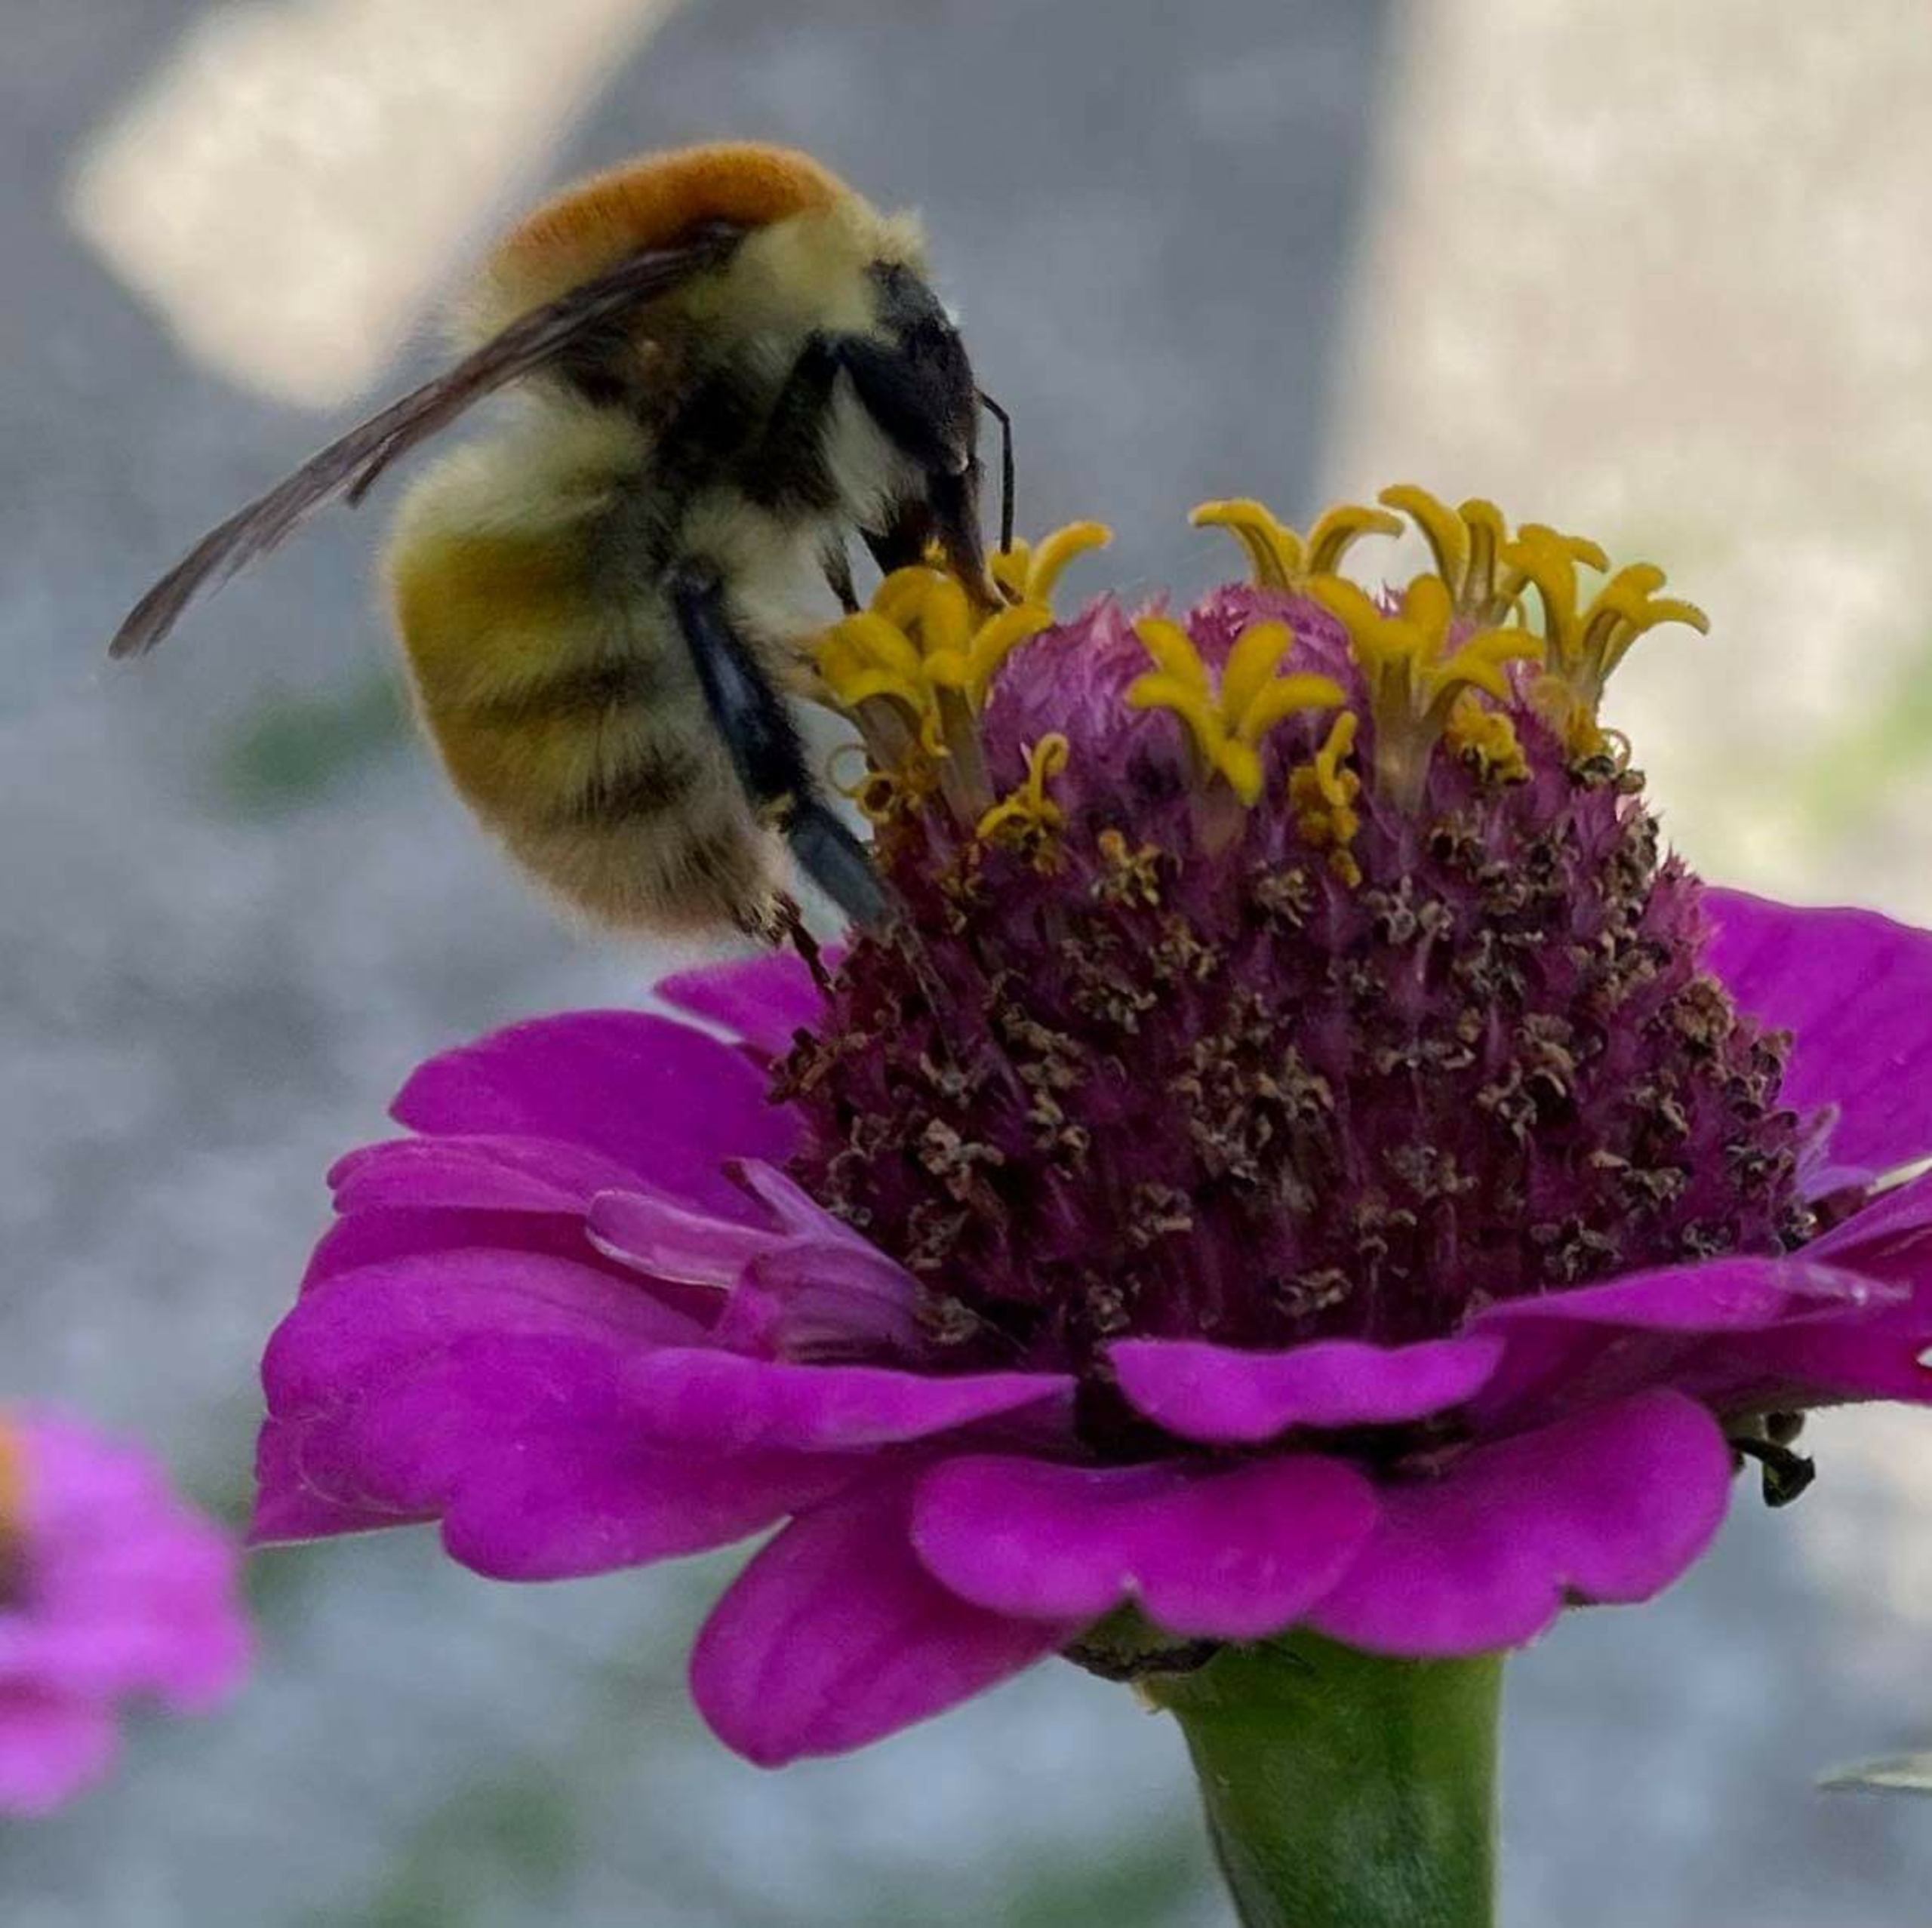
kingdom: Animalia
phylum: Arthropoda
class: Insecta
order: Hymenoptera
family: Apidae
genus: Bombus
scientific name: Bombus muscorum
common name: Moshumle
